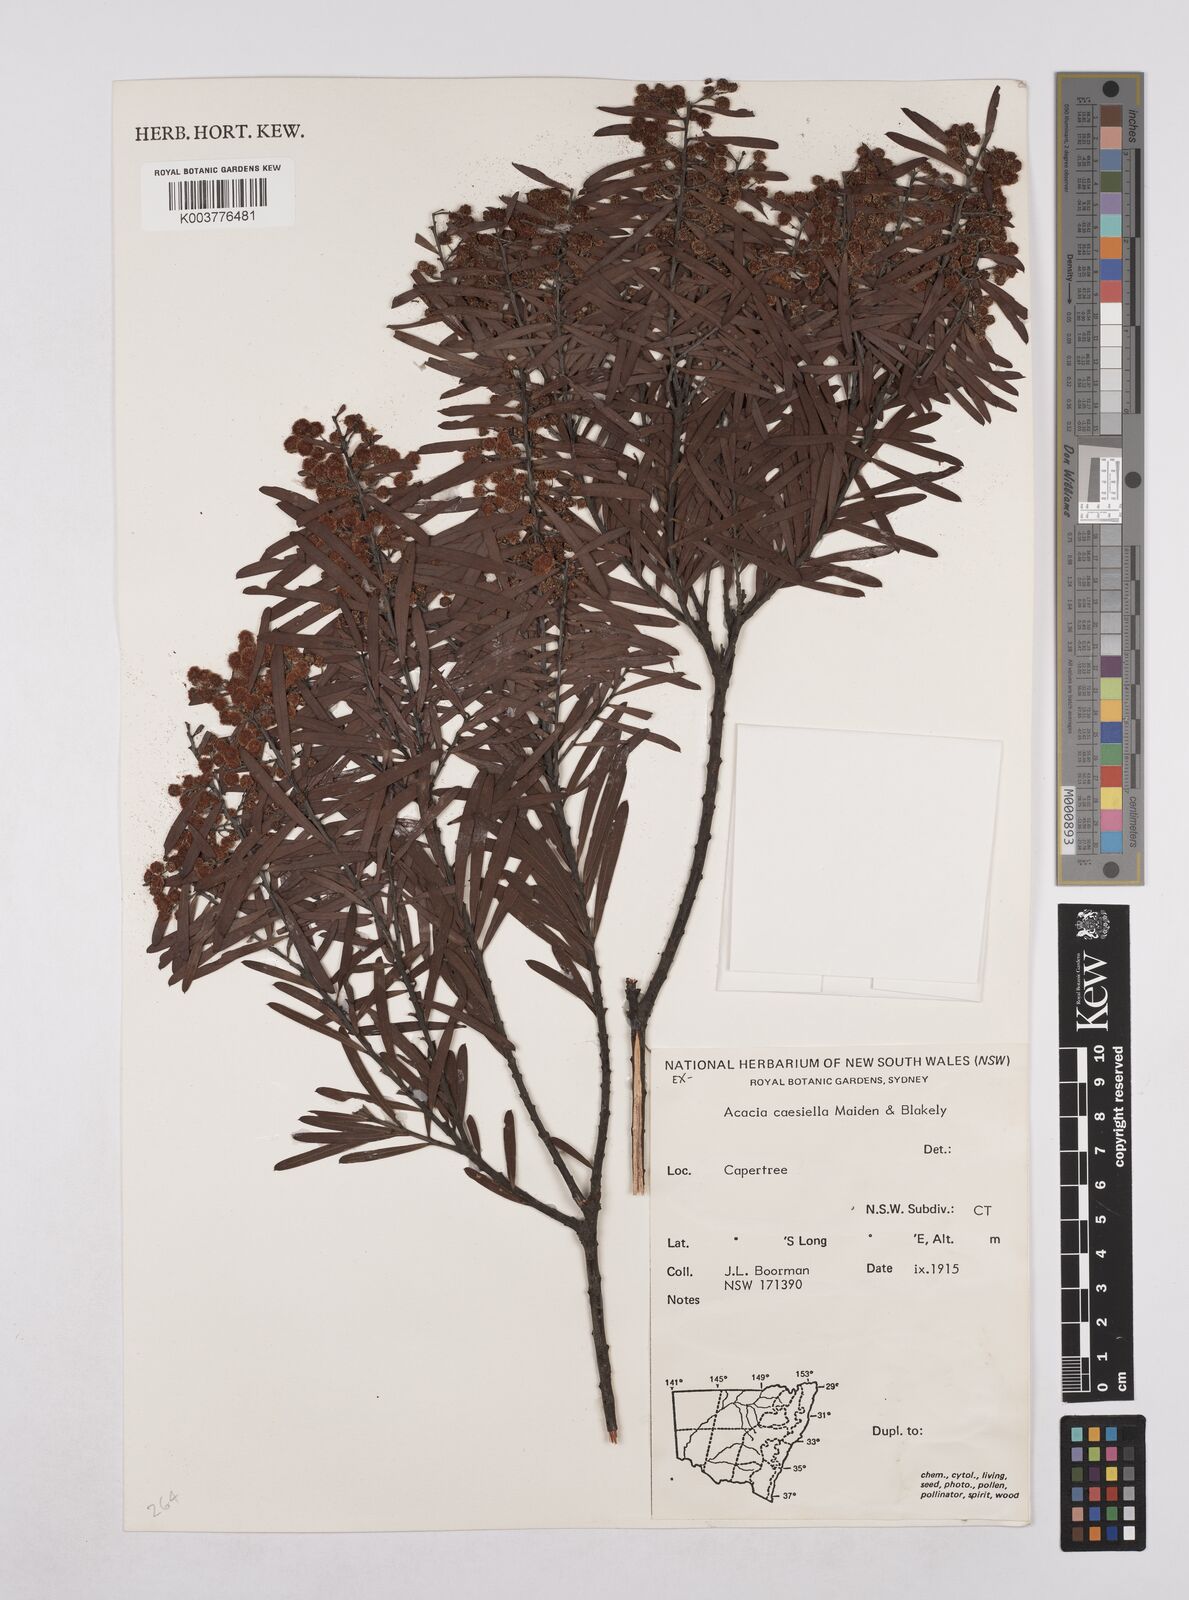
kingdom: Plantae
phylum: Tracheophyta
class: Magnoliopsida
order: Fabales
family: Fabaceae
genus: Acacia
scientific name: Acacia caesiella
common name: Tableland wattle
